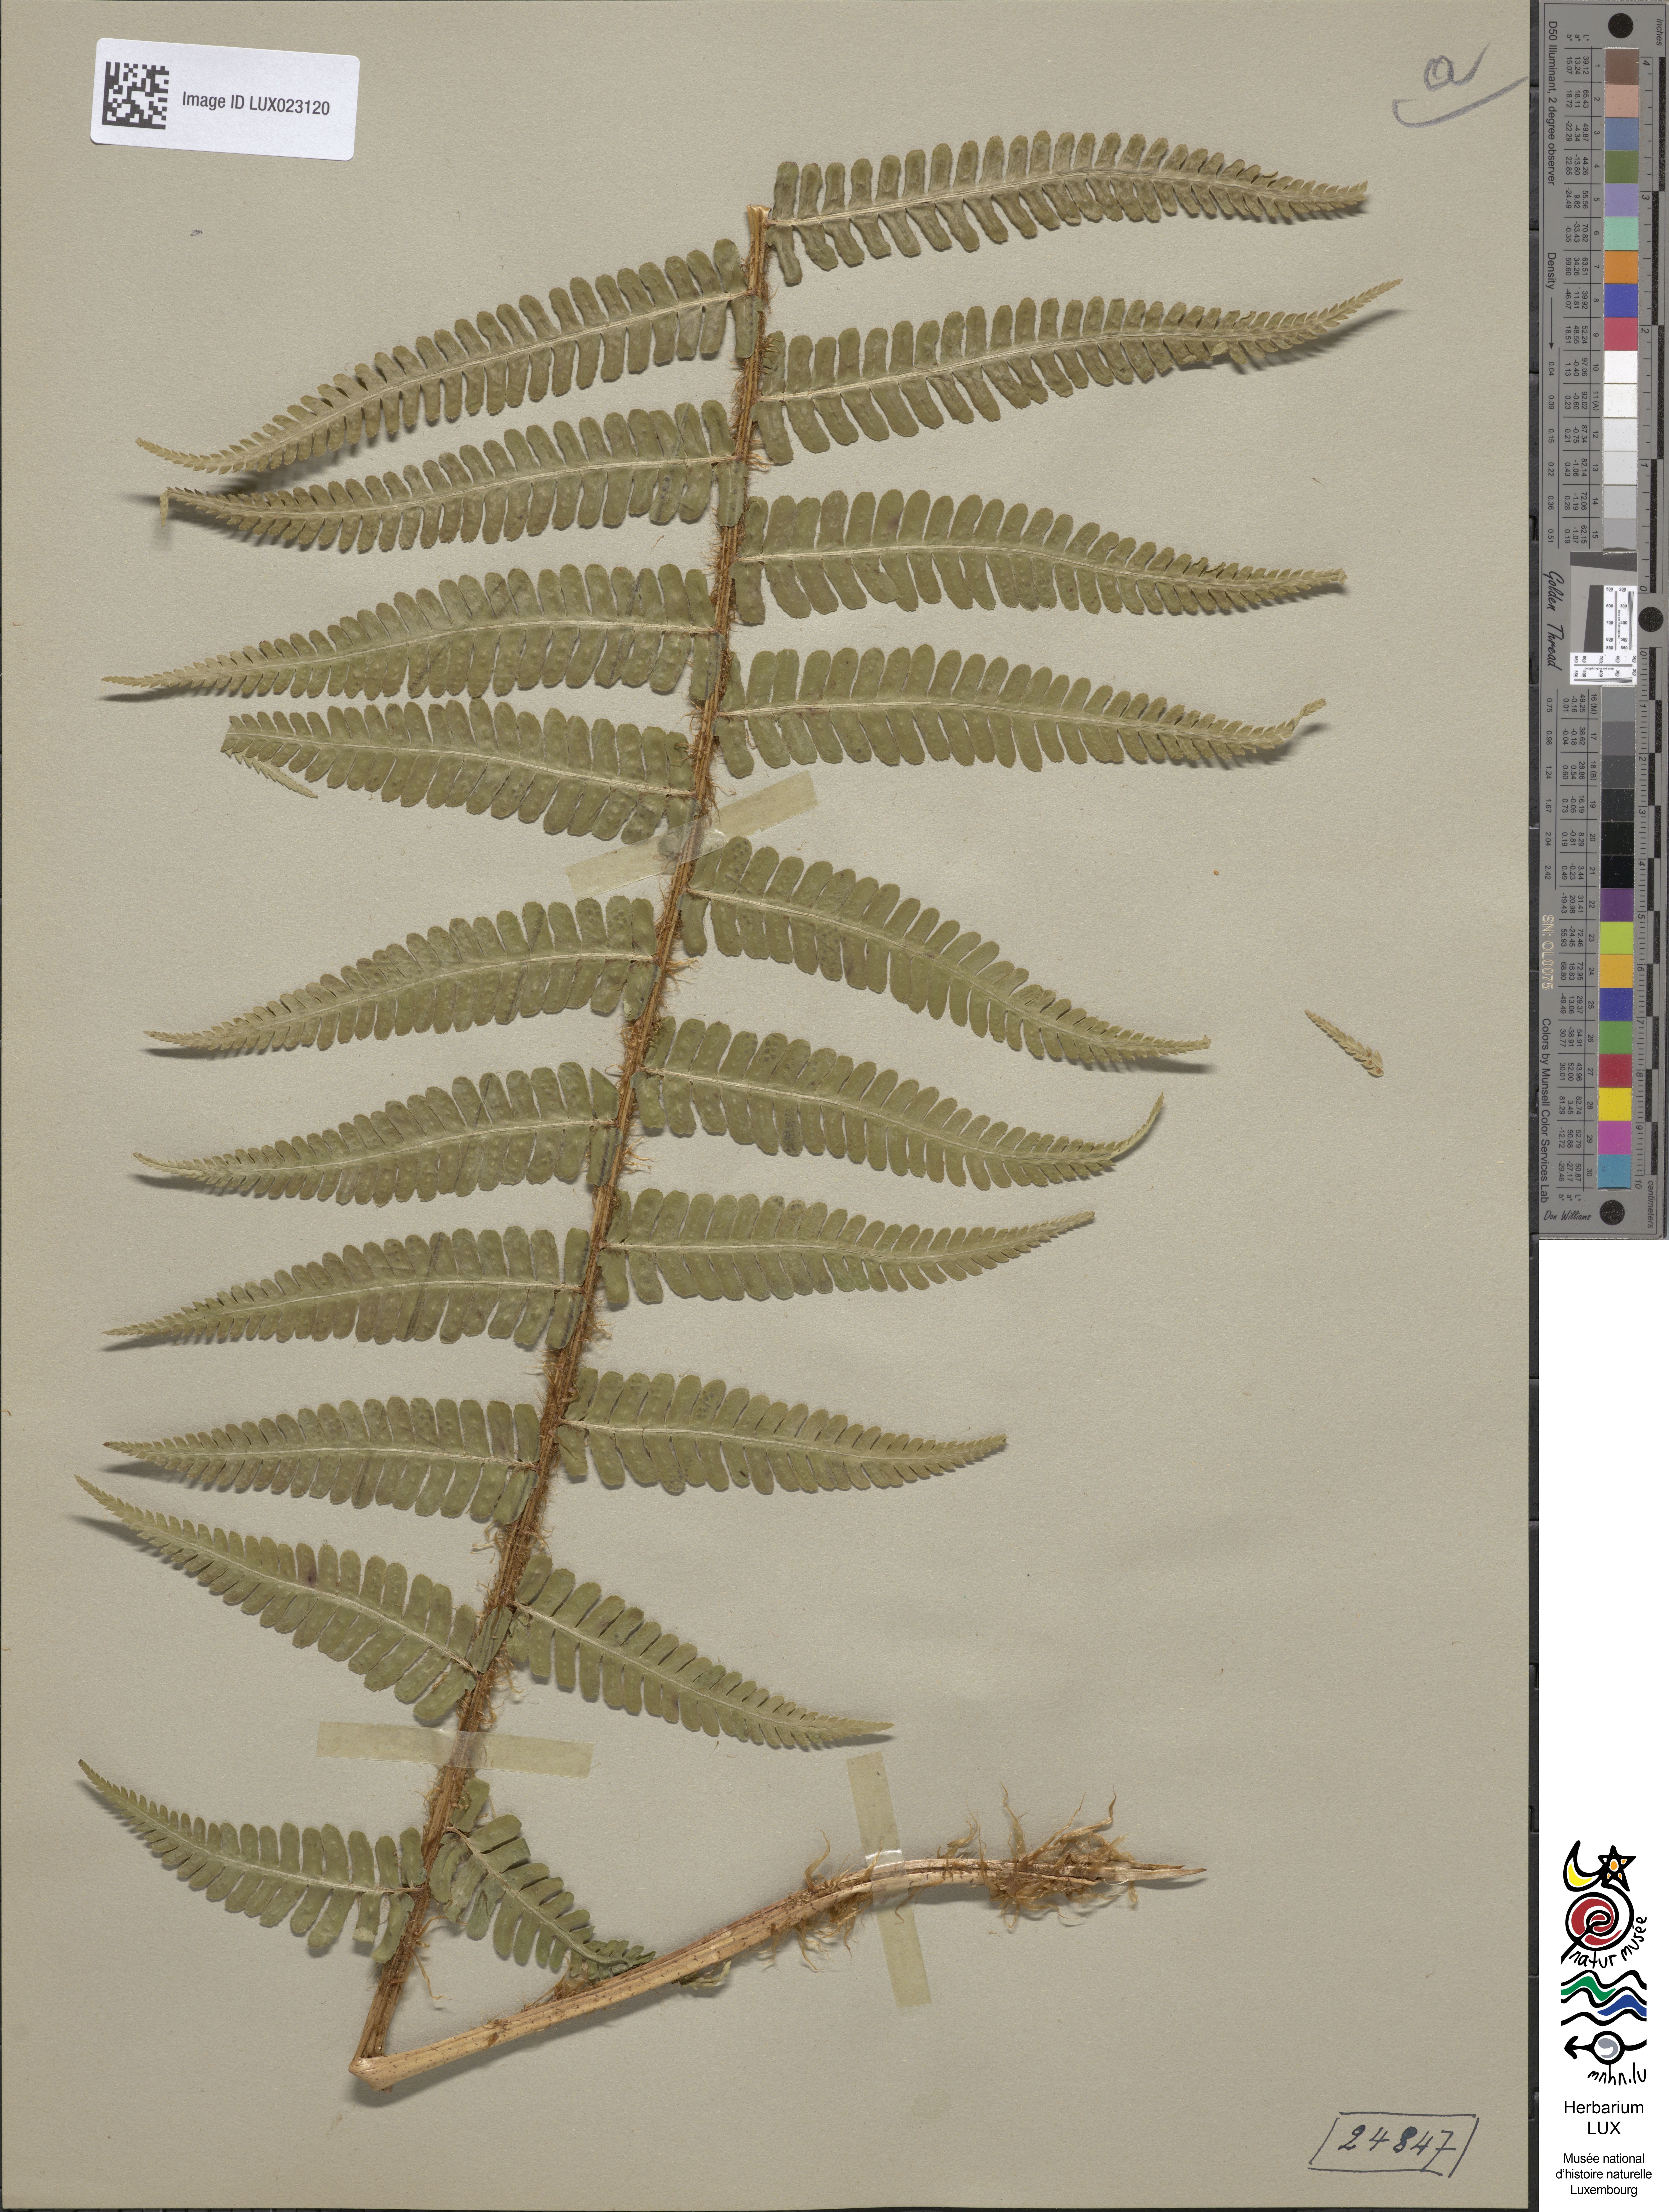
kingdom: Plantae
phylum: Tracheophyta
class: Polypodiopsida
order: Polypodiales
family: Dryopteridaceae
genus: Dryopteris
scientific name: Dryopteris borreri
